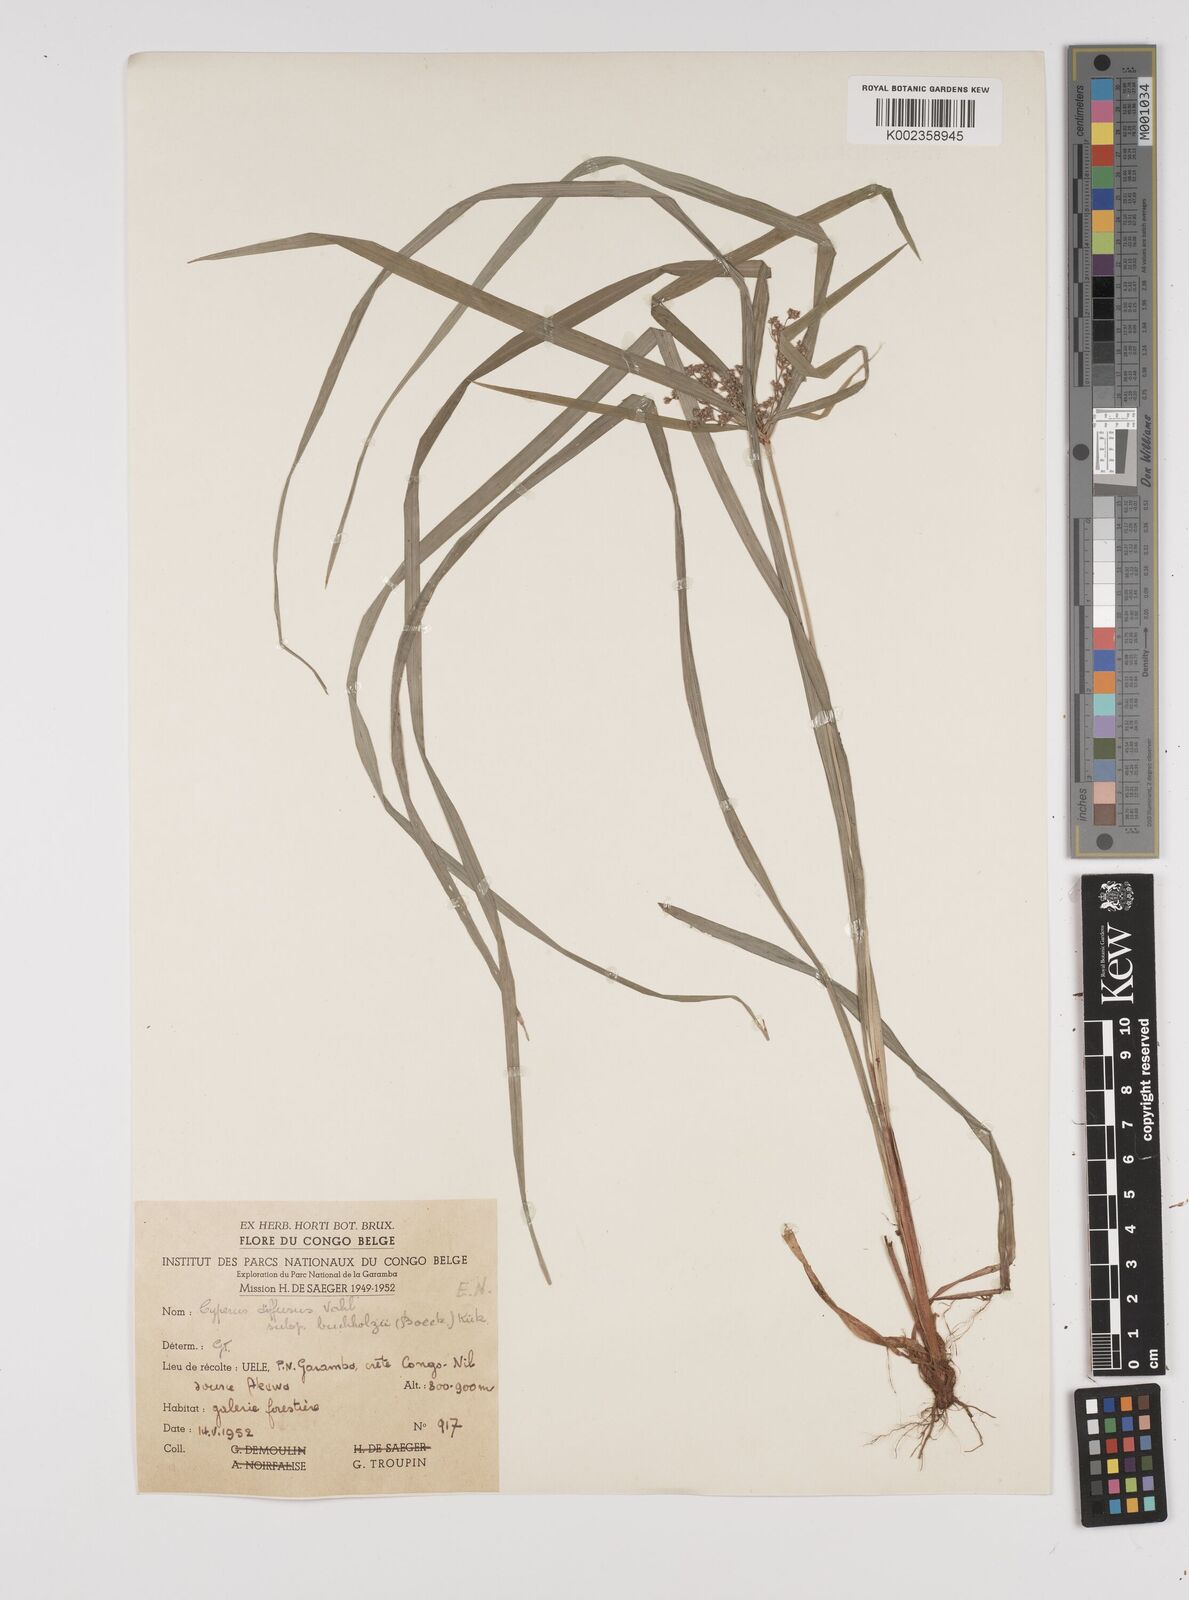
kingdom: Plantae
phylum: Tracheophyta
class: Liliopsida
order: Poales
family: Cyperaceae
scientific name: Cyperaceae
